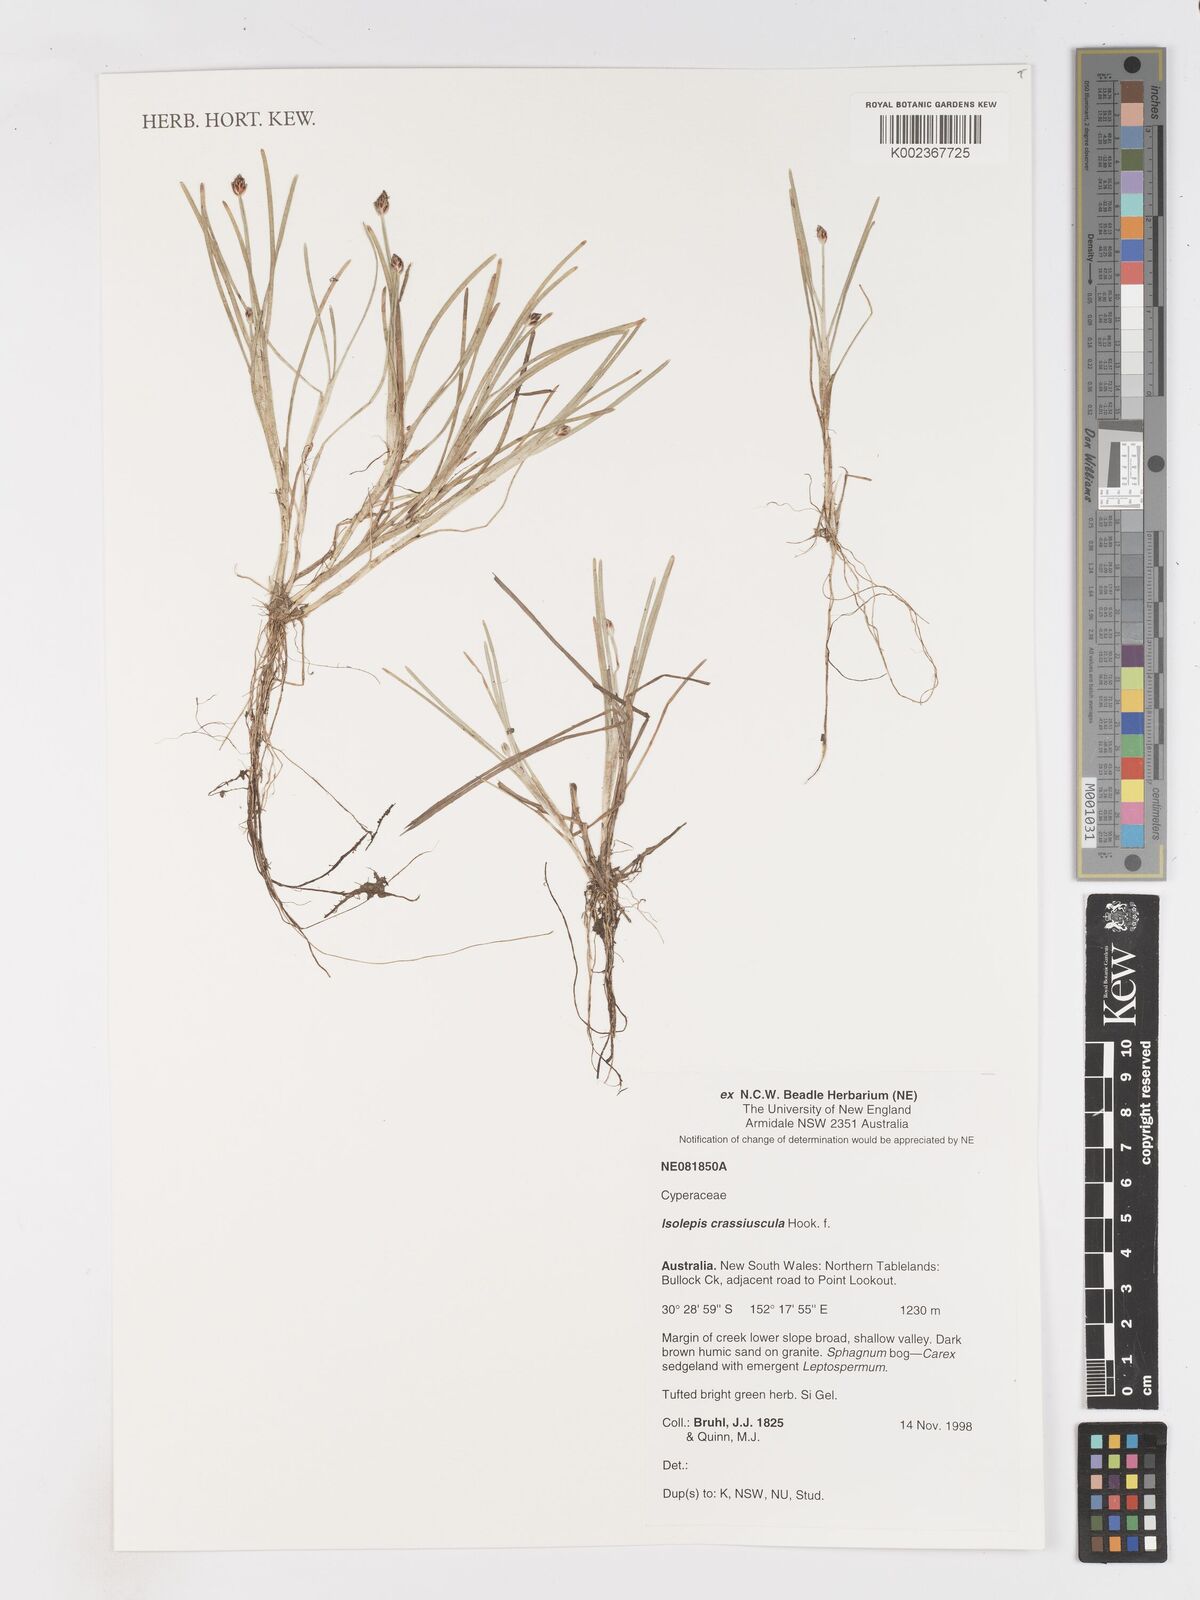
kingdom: Plantae
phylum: Tracheophyta
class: Liliopsida
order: Poales
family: Cyperaceae
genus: Isolepis
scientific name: Isolepis crassiuscula
